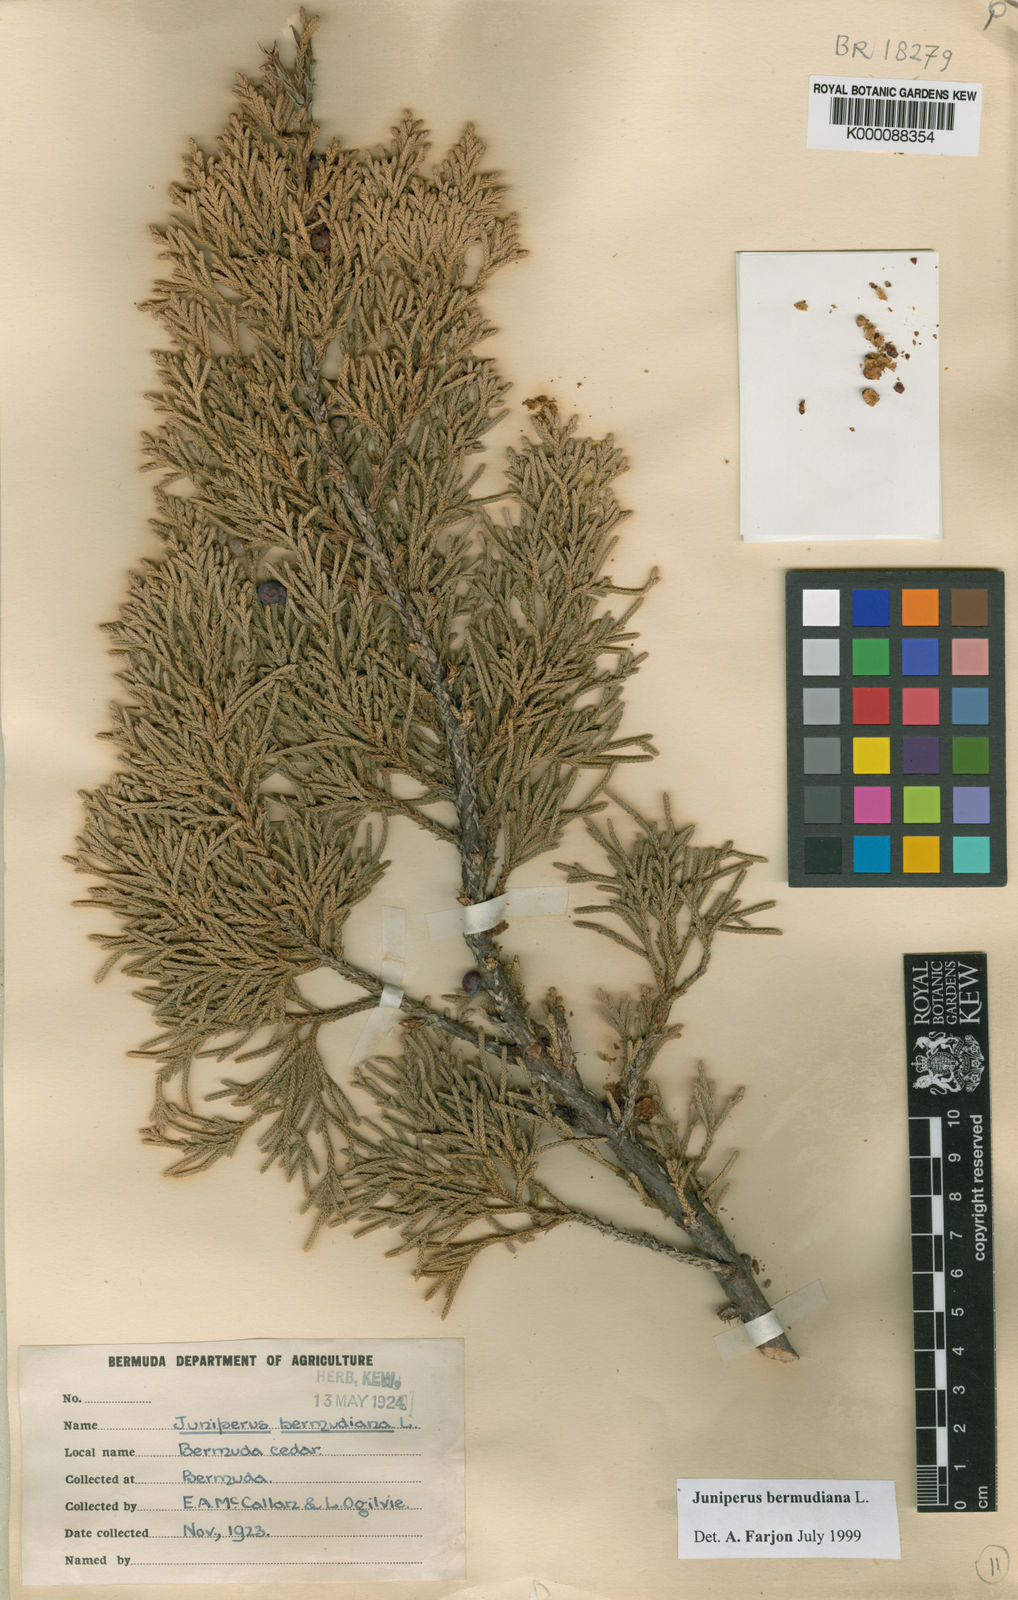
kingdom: Plantae
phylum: Tracheophyta
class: Pinopsida
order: Pinales
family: Cupressaceae
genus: Juniperus
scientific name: Juniperus bermudiana
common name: Bermuda juniper
